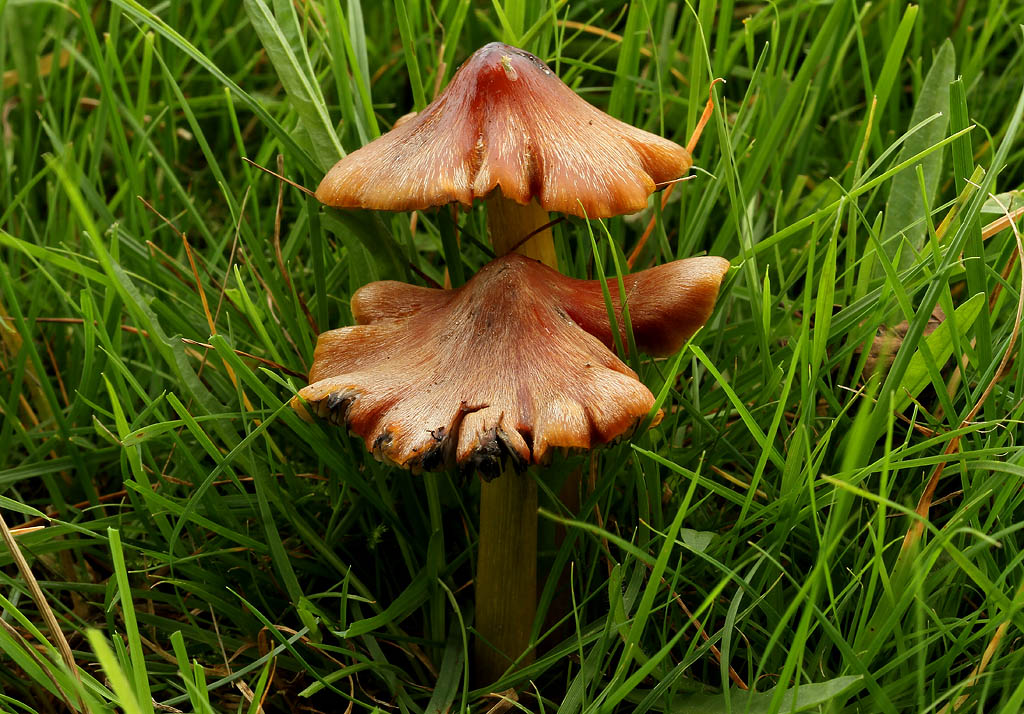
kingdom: Fungi
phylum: Basidiomycota
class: Agaricomycetes
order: Agaricales
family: Hygrophoraceae
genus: Hygrocybe
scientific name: Hygrocybe conica
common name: kegle-vokshat
